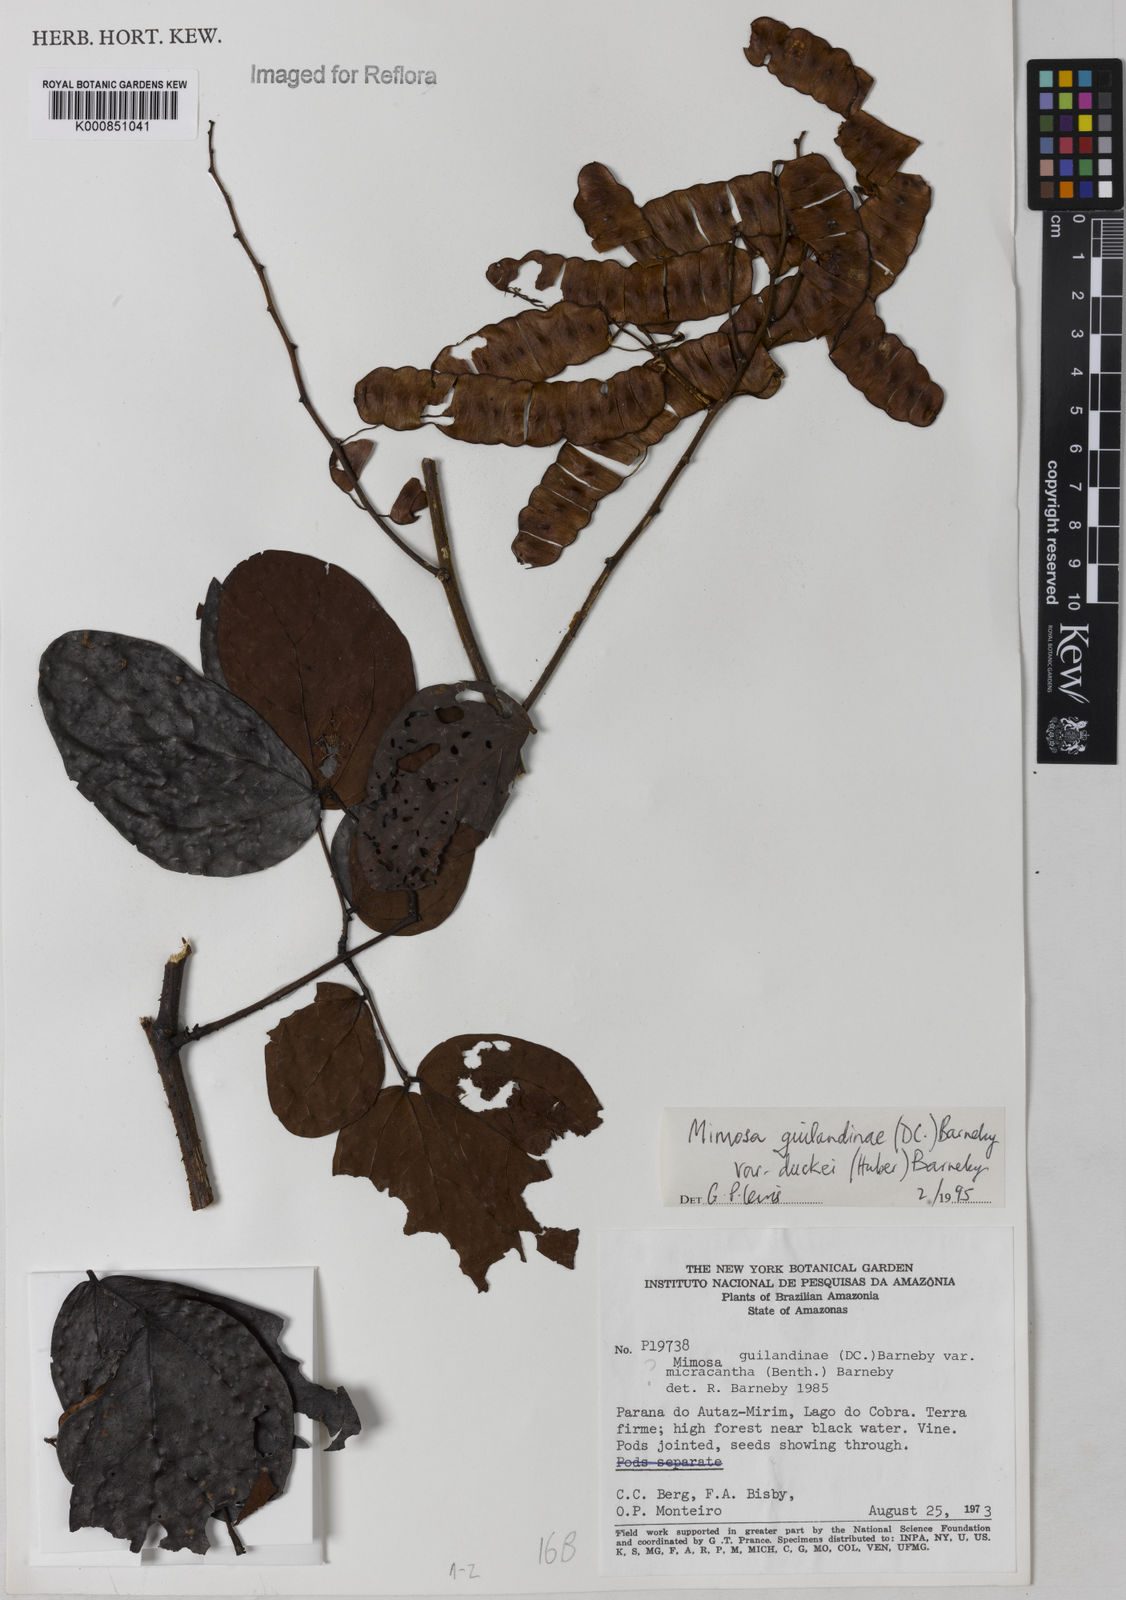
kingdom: Plantae
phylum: Tracheophyta
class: Magnoliopsida
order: Fabales
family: Fabaceae
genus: Mimosa
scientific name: Mimosa guilandinae
